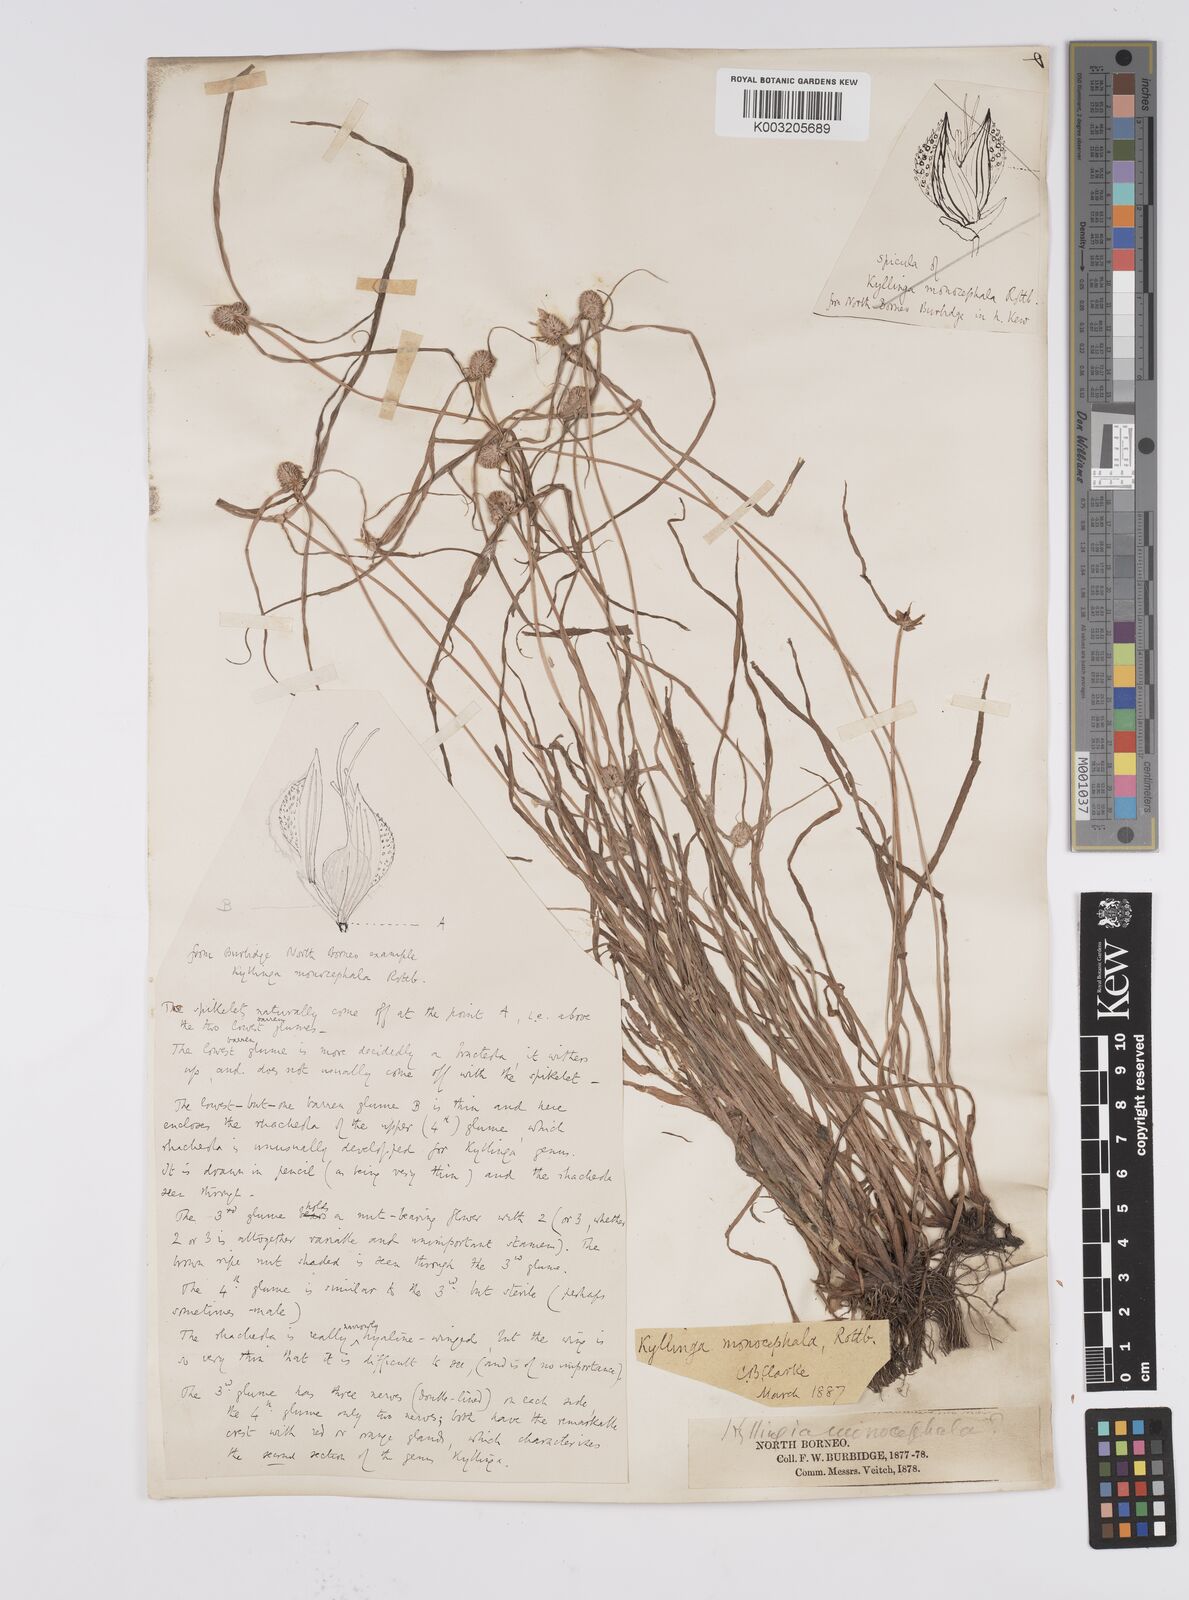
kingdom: Plantae
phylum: Tracheophyta
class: Liliopsida
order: Poales
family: Cyperaceae
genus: Cyperus
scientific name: Cyperus nemoralis
